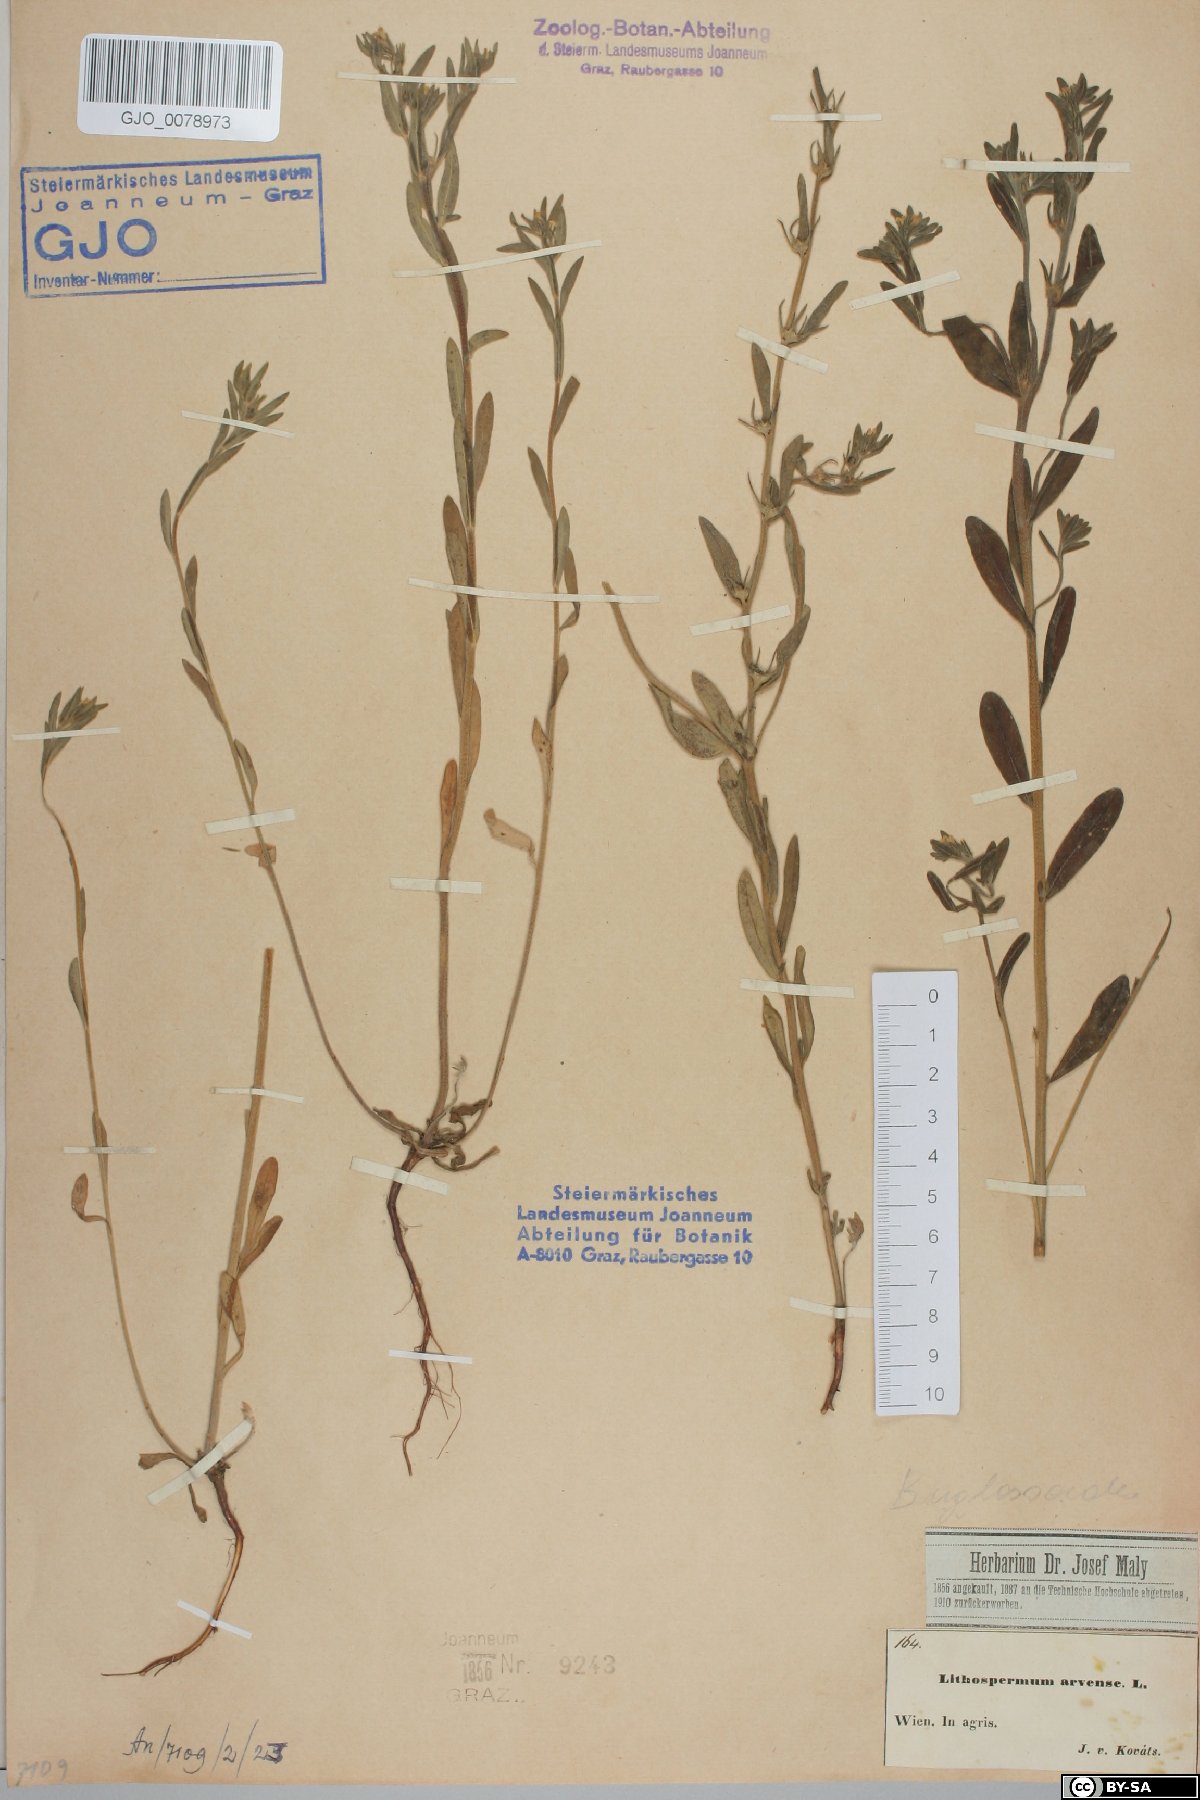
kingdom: Plantae
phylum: Tracheophyta
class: Magnoliopsida
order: Boraginales
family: Boraginaceae
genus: Buglossoides
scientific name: Buglossoides arvensis
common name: Corn gromwell
